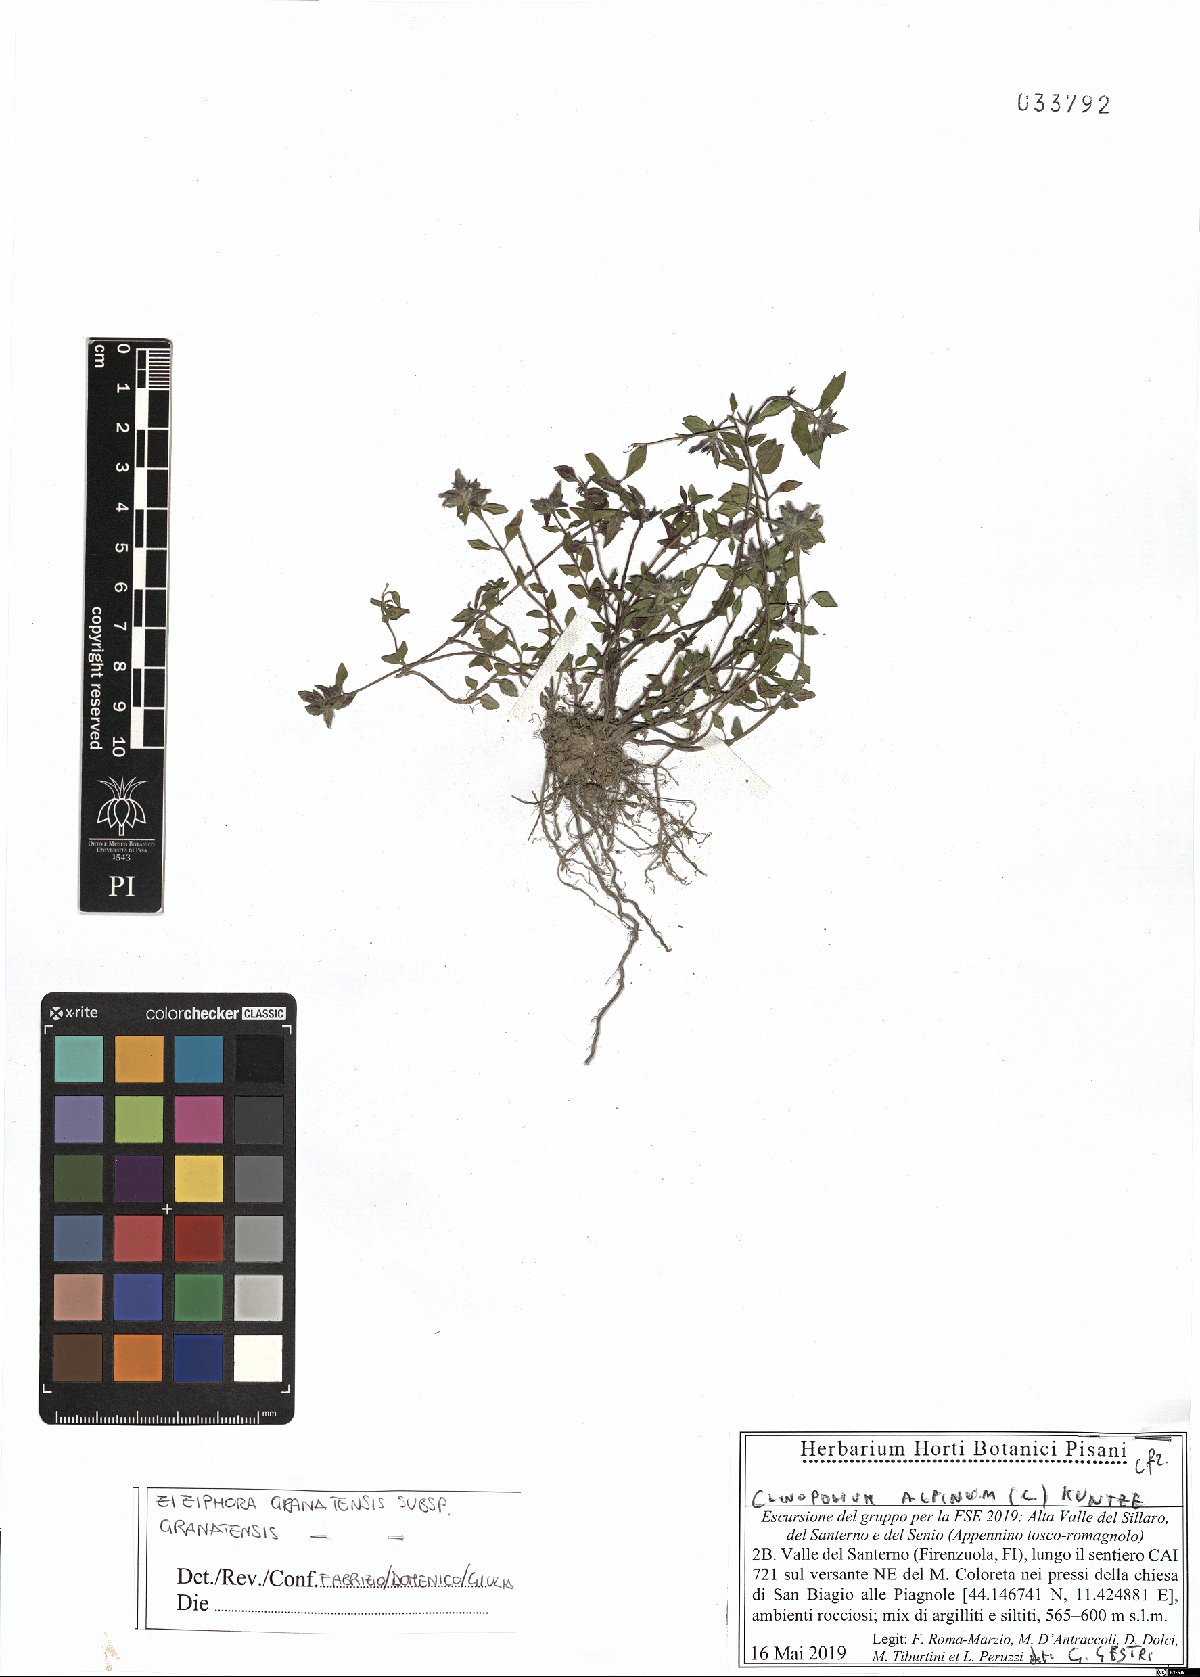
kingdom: Plantae
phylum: Tracheophyta
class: Magnoliopsida
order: Lamiales
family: Lamiaceae
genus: Clinopodium
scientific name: Clinopodium alpinum
